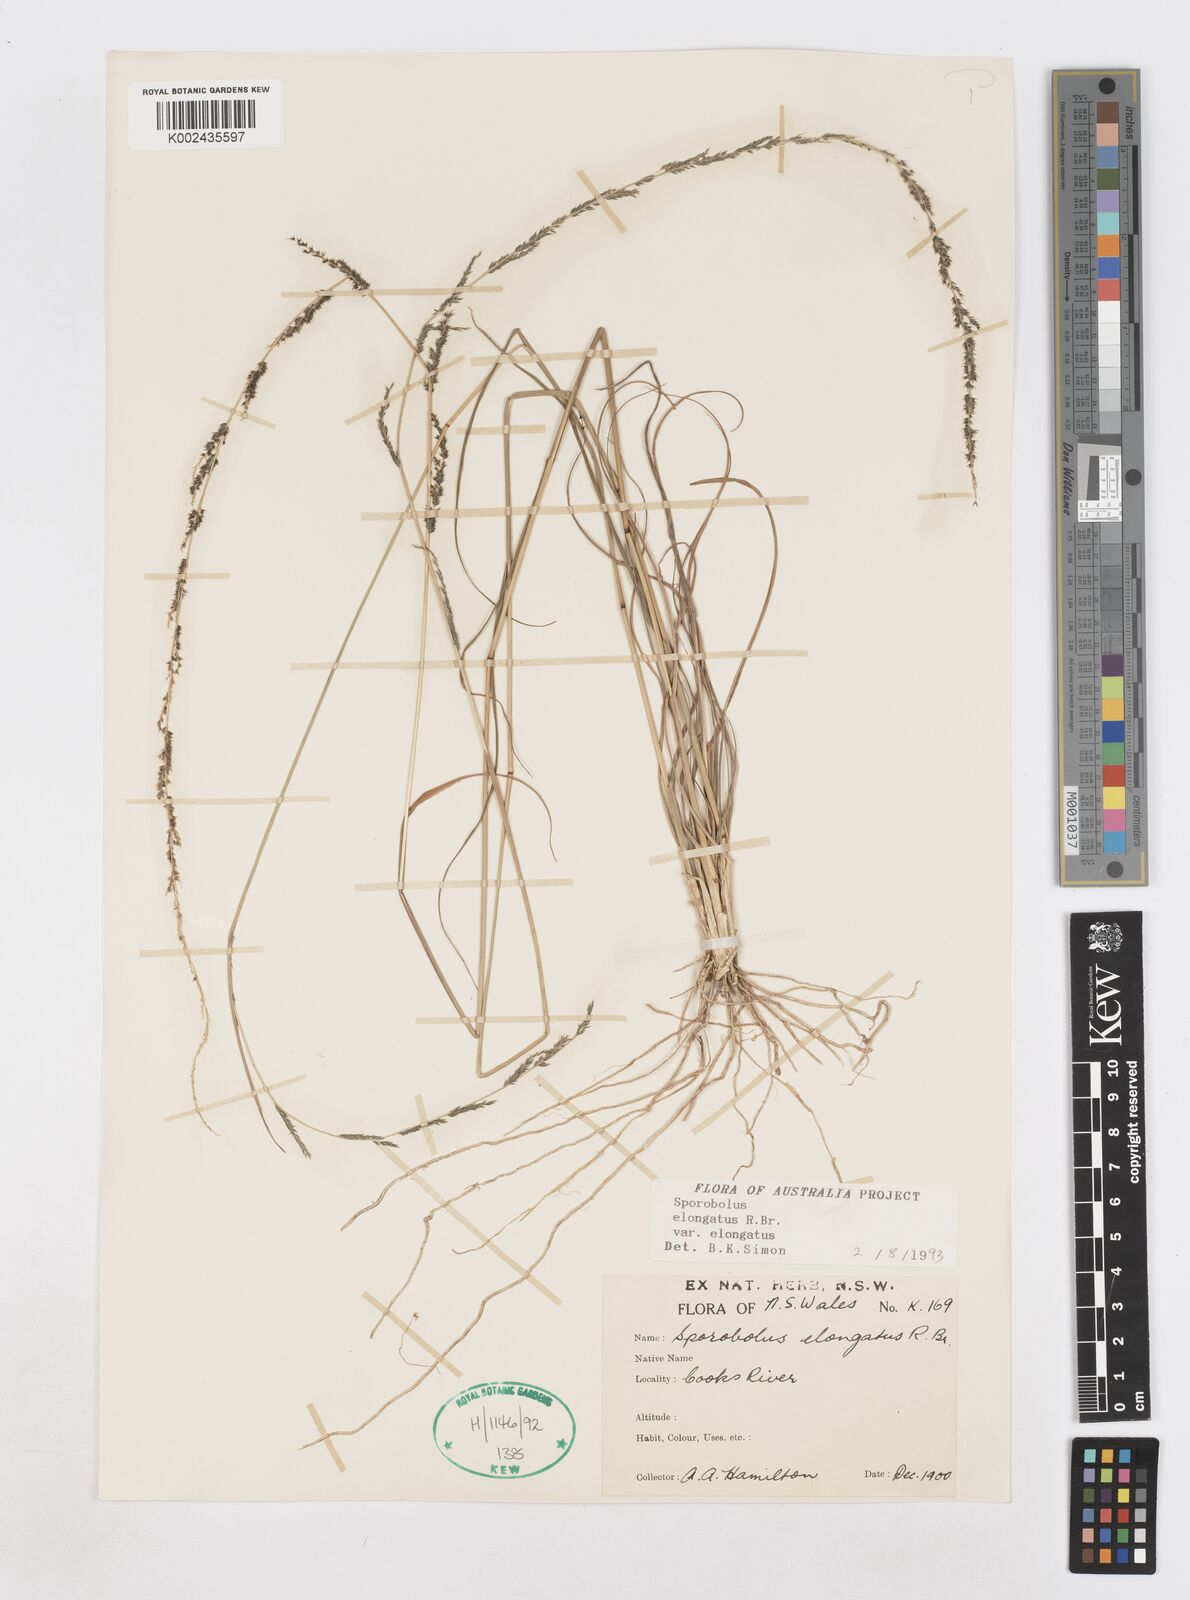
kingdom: Plantae
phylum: Tracheophyta
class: Liliopsida
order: Poales
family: Poaceae
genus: Sporobolus
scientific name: Sporobolus elongatus
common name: Rat tail grass
